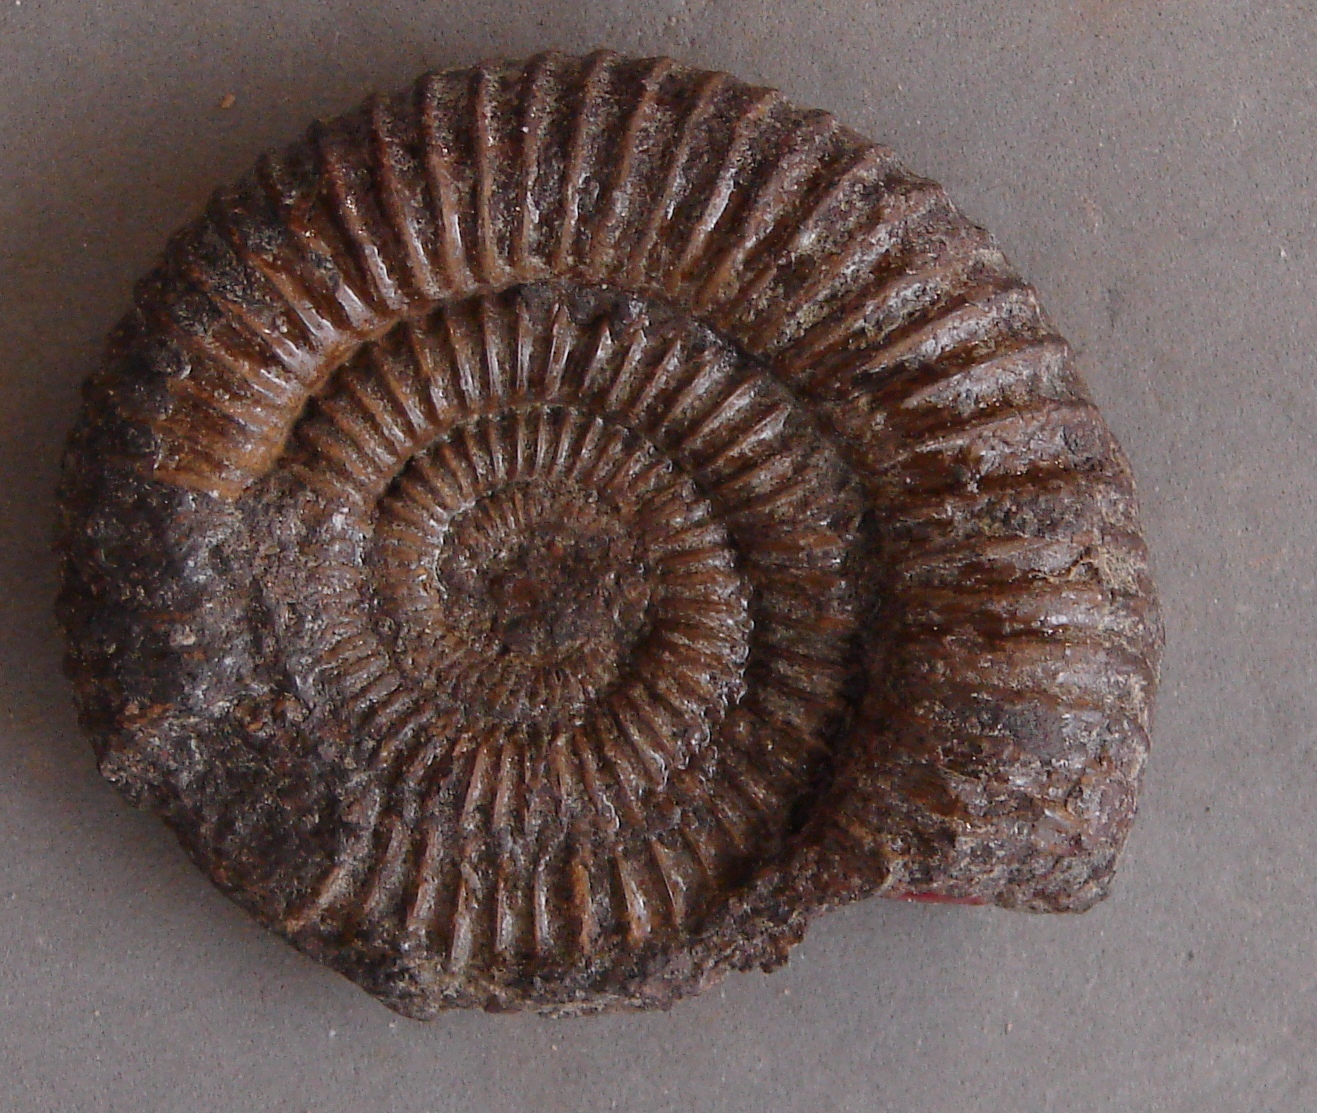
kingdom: Animalia
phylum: Mollusca
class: Cephalopoda
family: Hildoceratidae
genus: Catulloceras
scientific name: Catulloceras dumortieri
